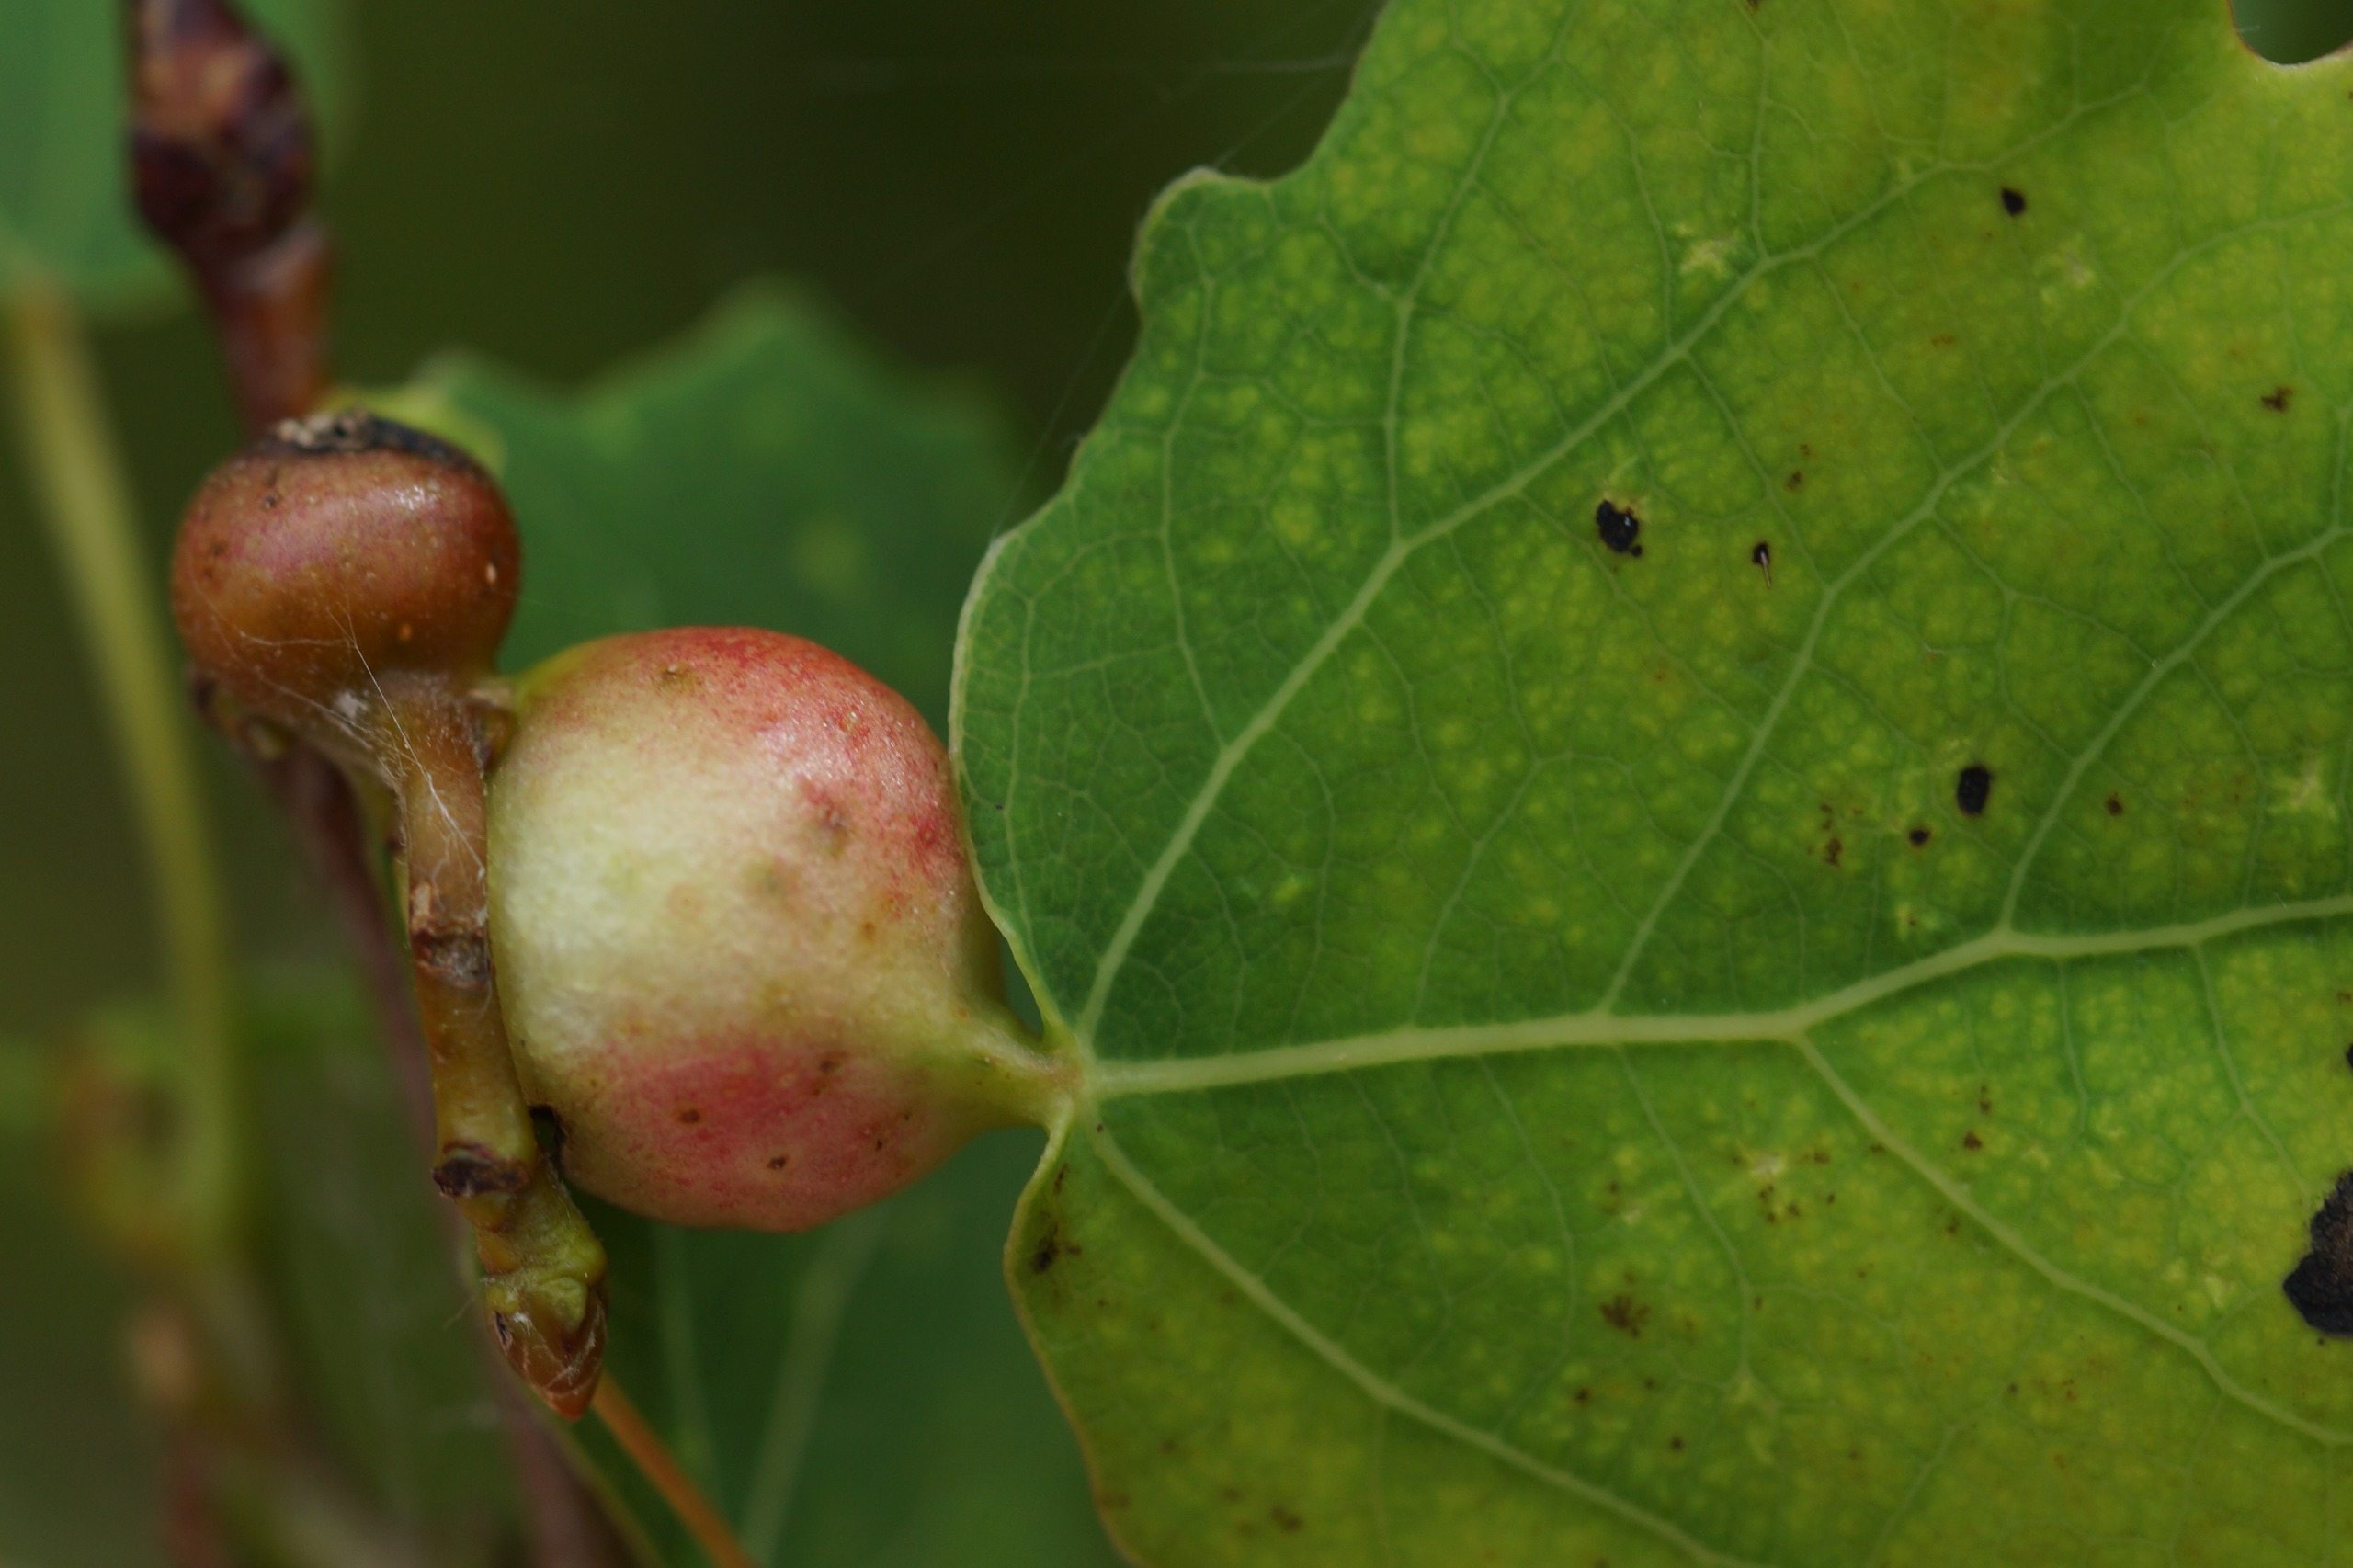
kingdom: Animalia
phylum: Arthropoda
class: Insecta
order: Diptera
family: Cecidomyiidae
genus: Contarinia
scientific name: Contarinia petioli
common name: Aspestilkgalmyg
